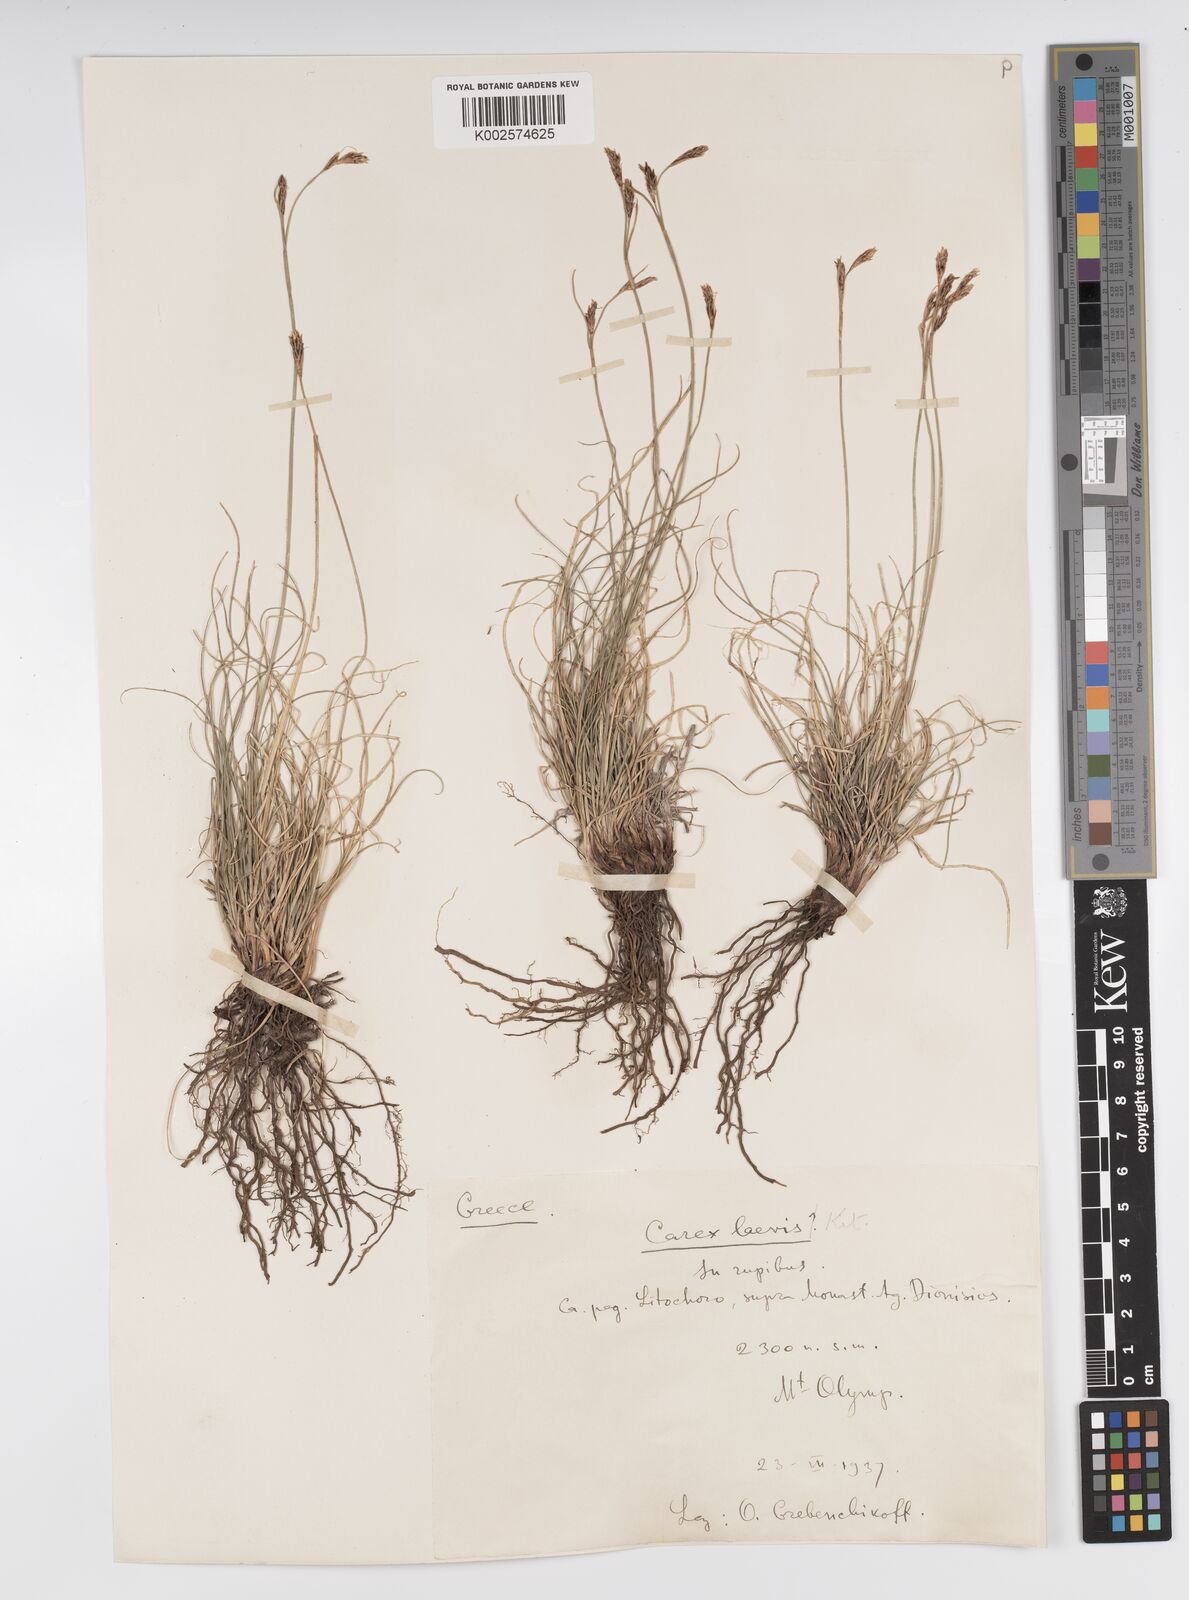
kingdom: Plantae
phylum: Tracheophyta
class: Liliopsida
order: Poales
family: Cyperaceae
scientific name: Cyperaceae
